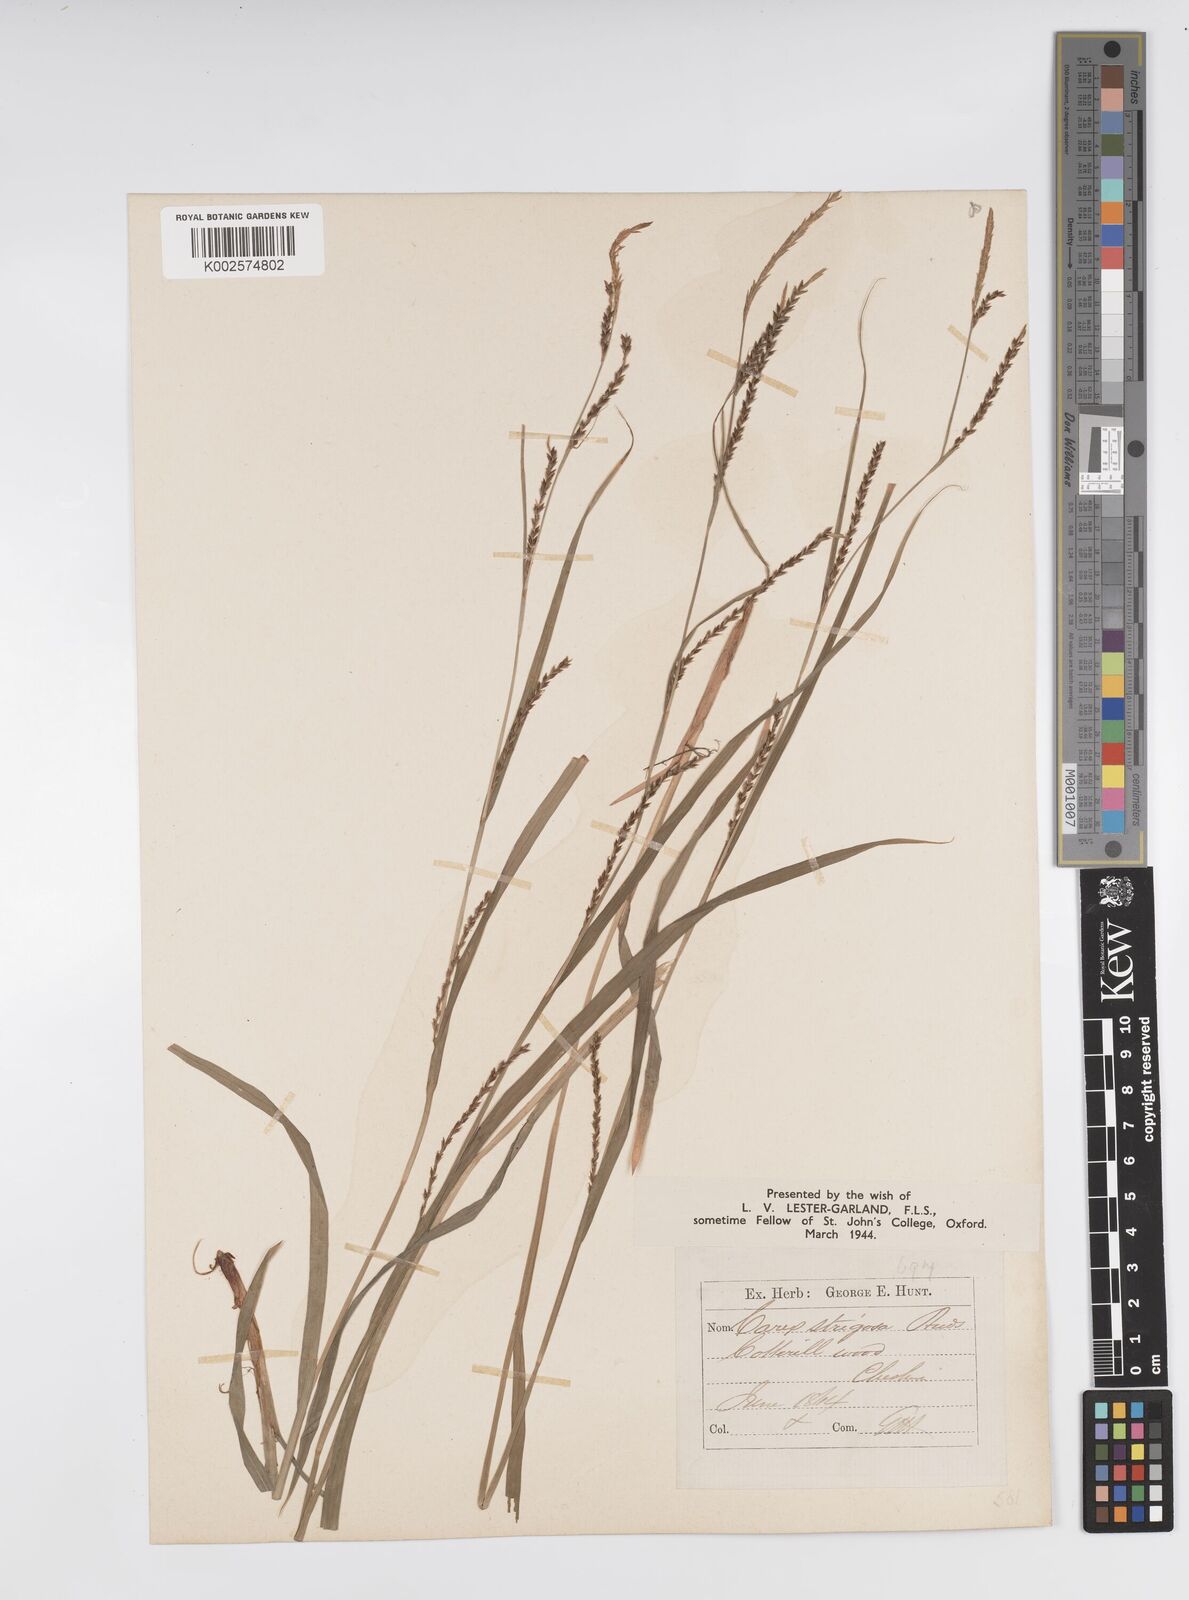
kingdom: Plantae
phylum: Tracheophyta
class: Liliopsida
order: Poales
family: Cyperaceae
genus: Carex
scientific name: Carex strigosa
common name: Thin-spiked wood-sedge
